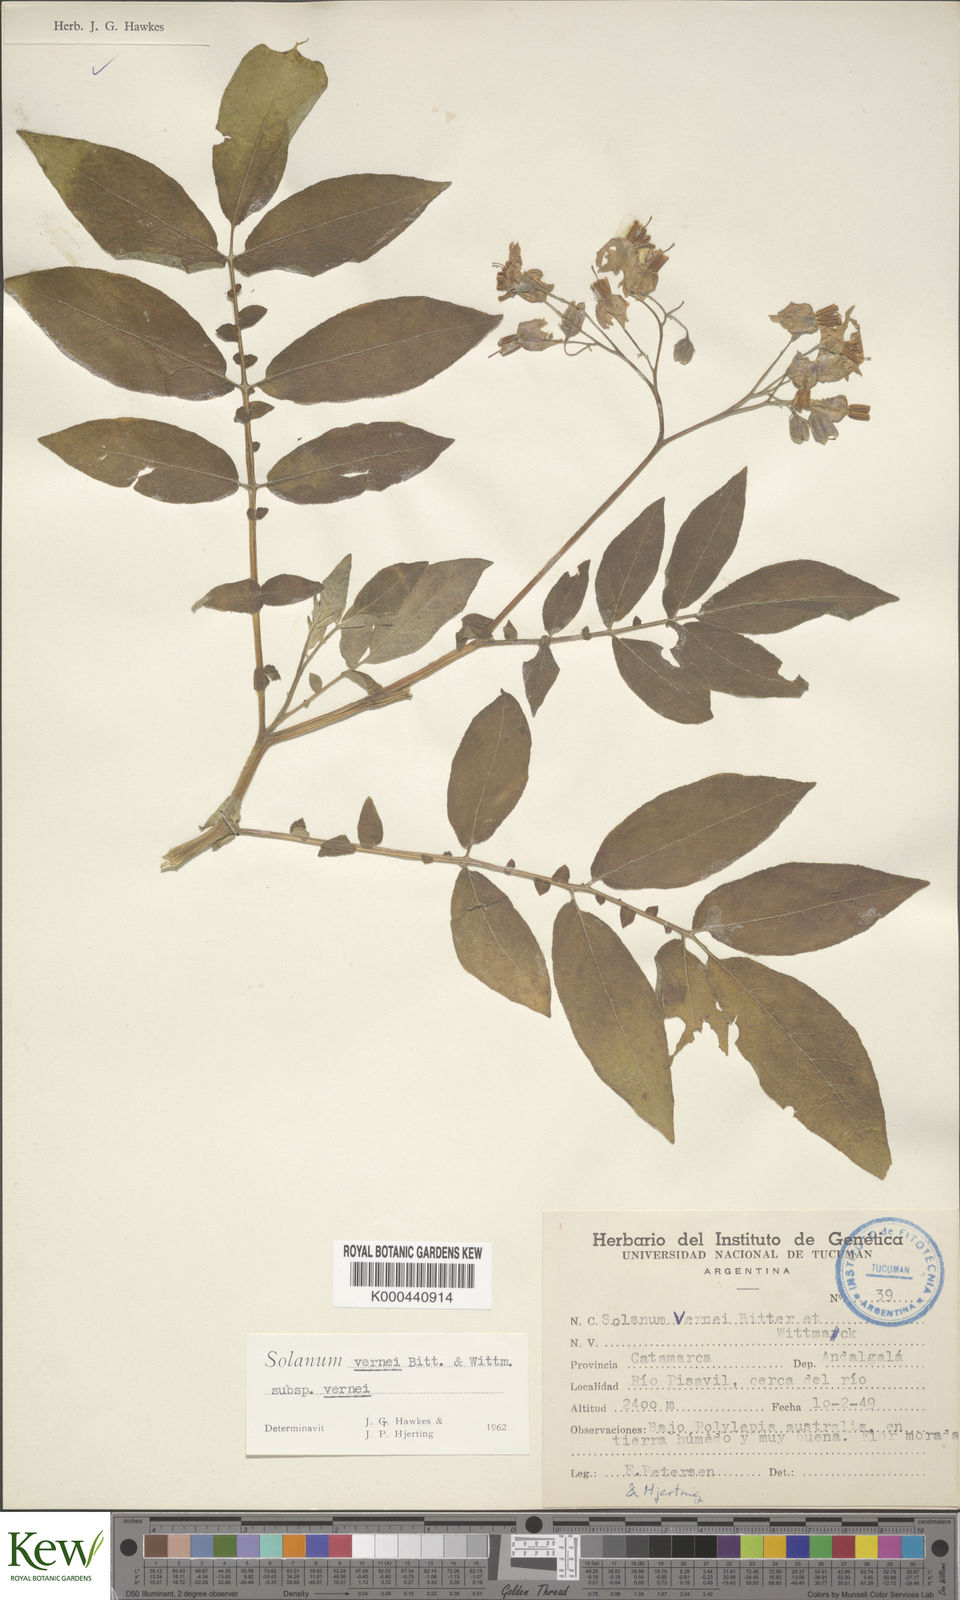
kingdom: Plantae
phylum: Tracheophyta
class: Magnoliopsida
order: Solanales
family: Solanaceae
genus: Solanum
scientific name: Solanum vernei
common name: Purple potato
